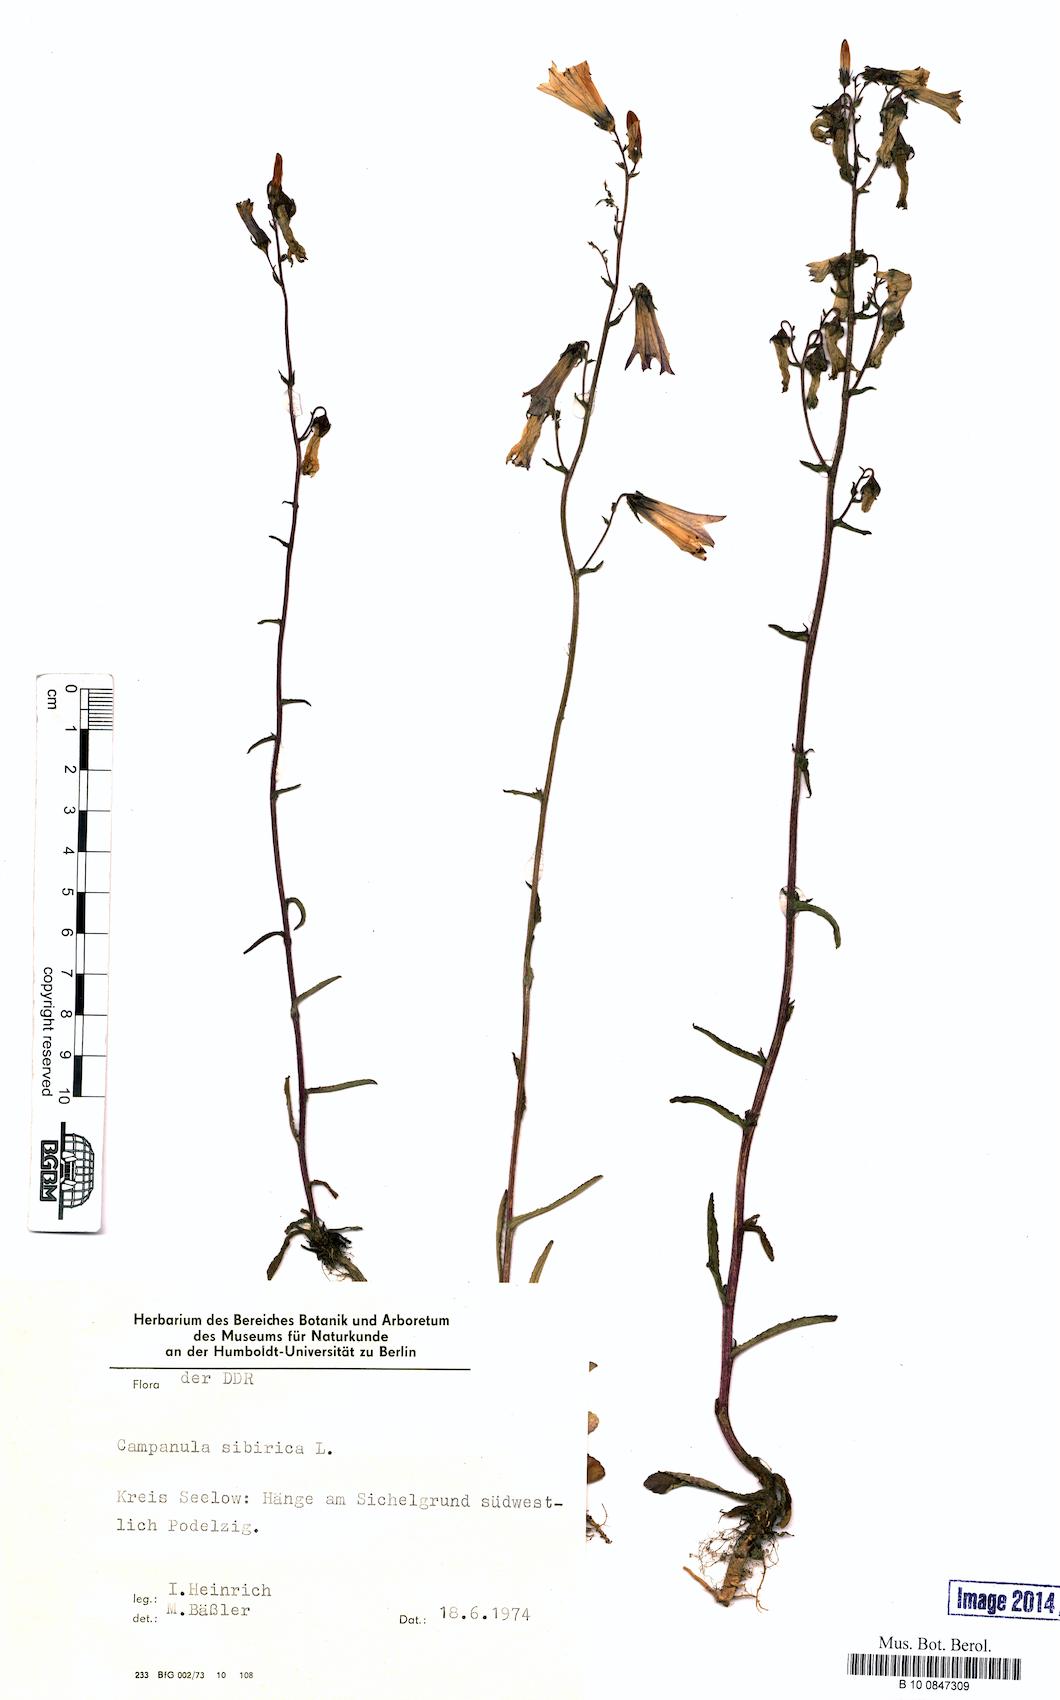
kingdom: Plantae
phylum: Tracheophyta
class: Magnoliopsida
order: Asterales
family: Campanulaceae
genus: Campanula
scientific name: Campanula sibirica
